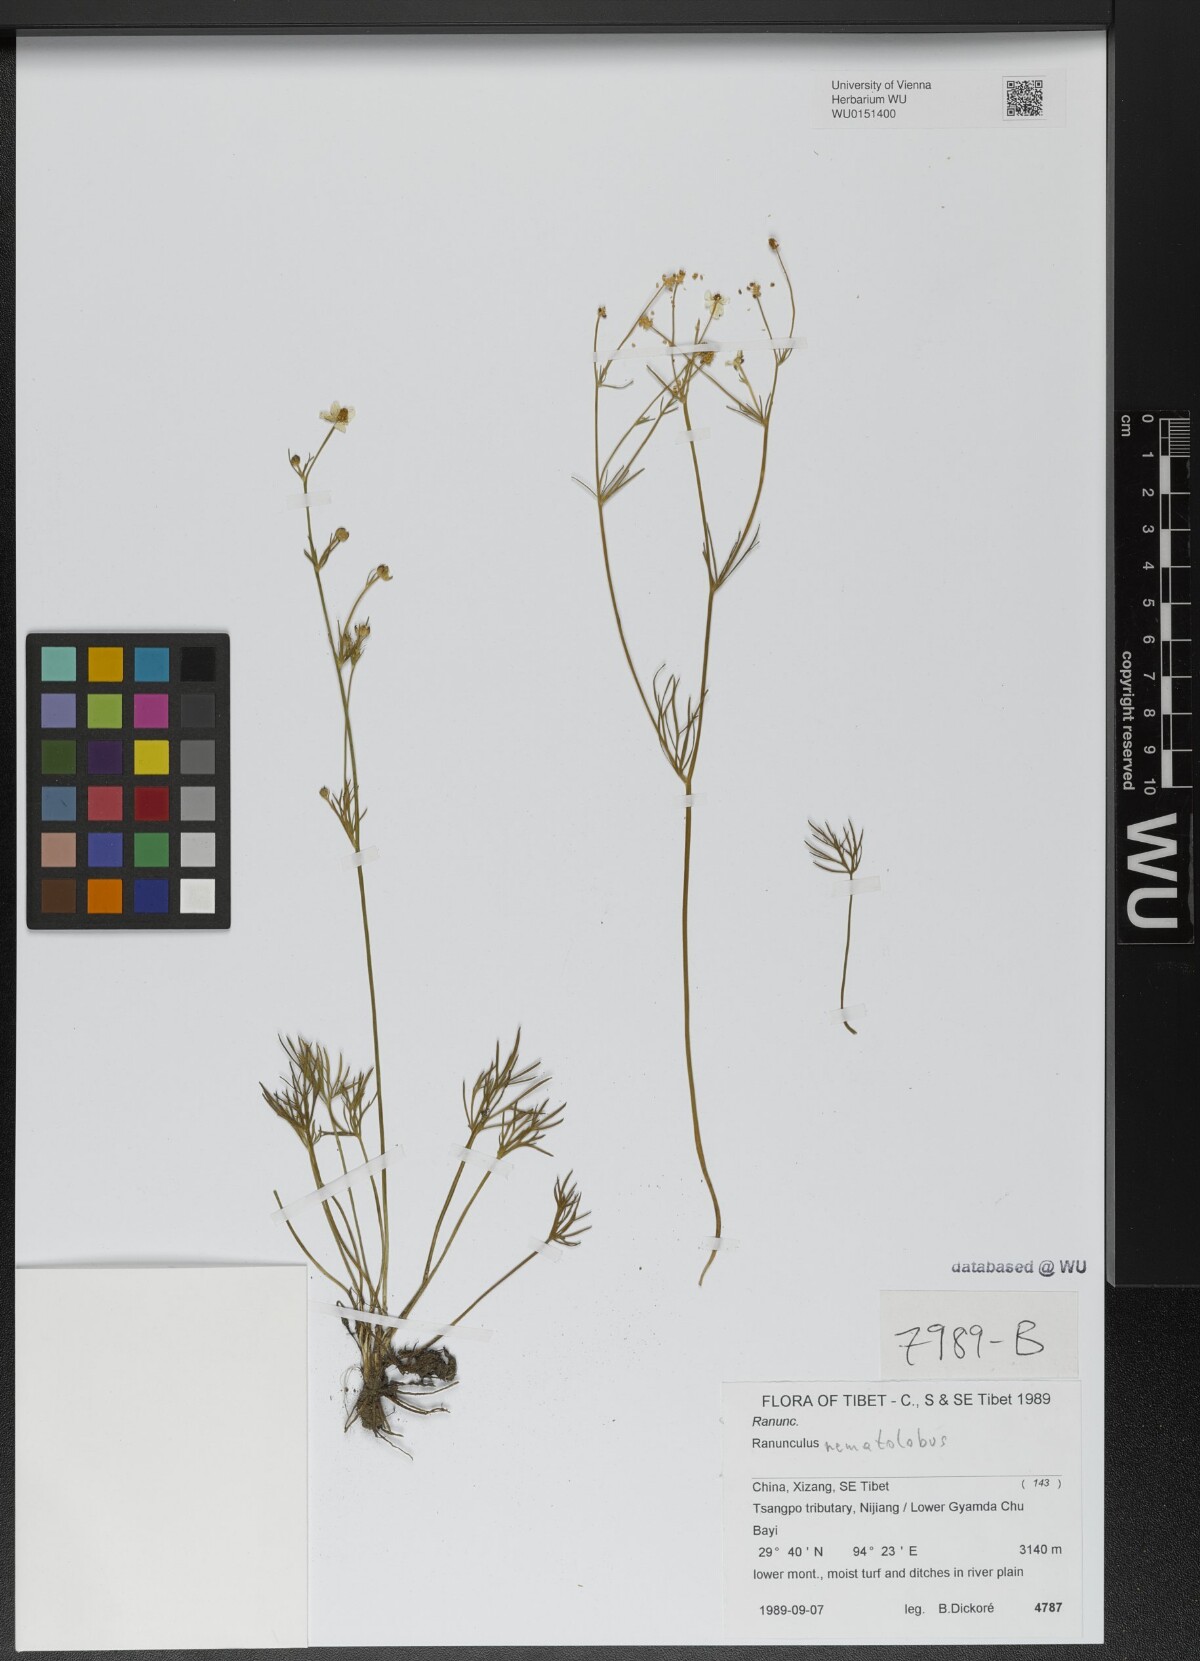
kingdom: Plantae
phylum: Tracheophyta
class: Magnoliopsida
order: Ranunculales
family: Ranunculaceae
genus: Ranunculus
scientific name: Ranunculus nematolobus
